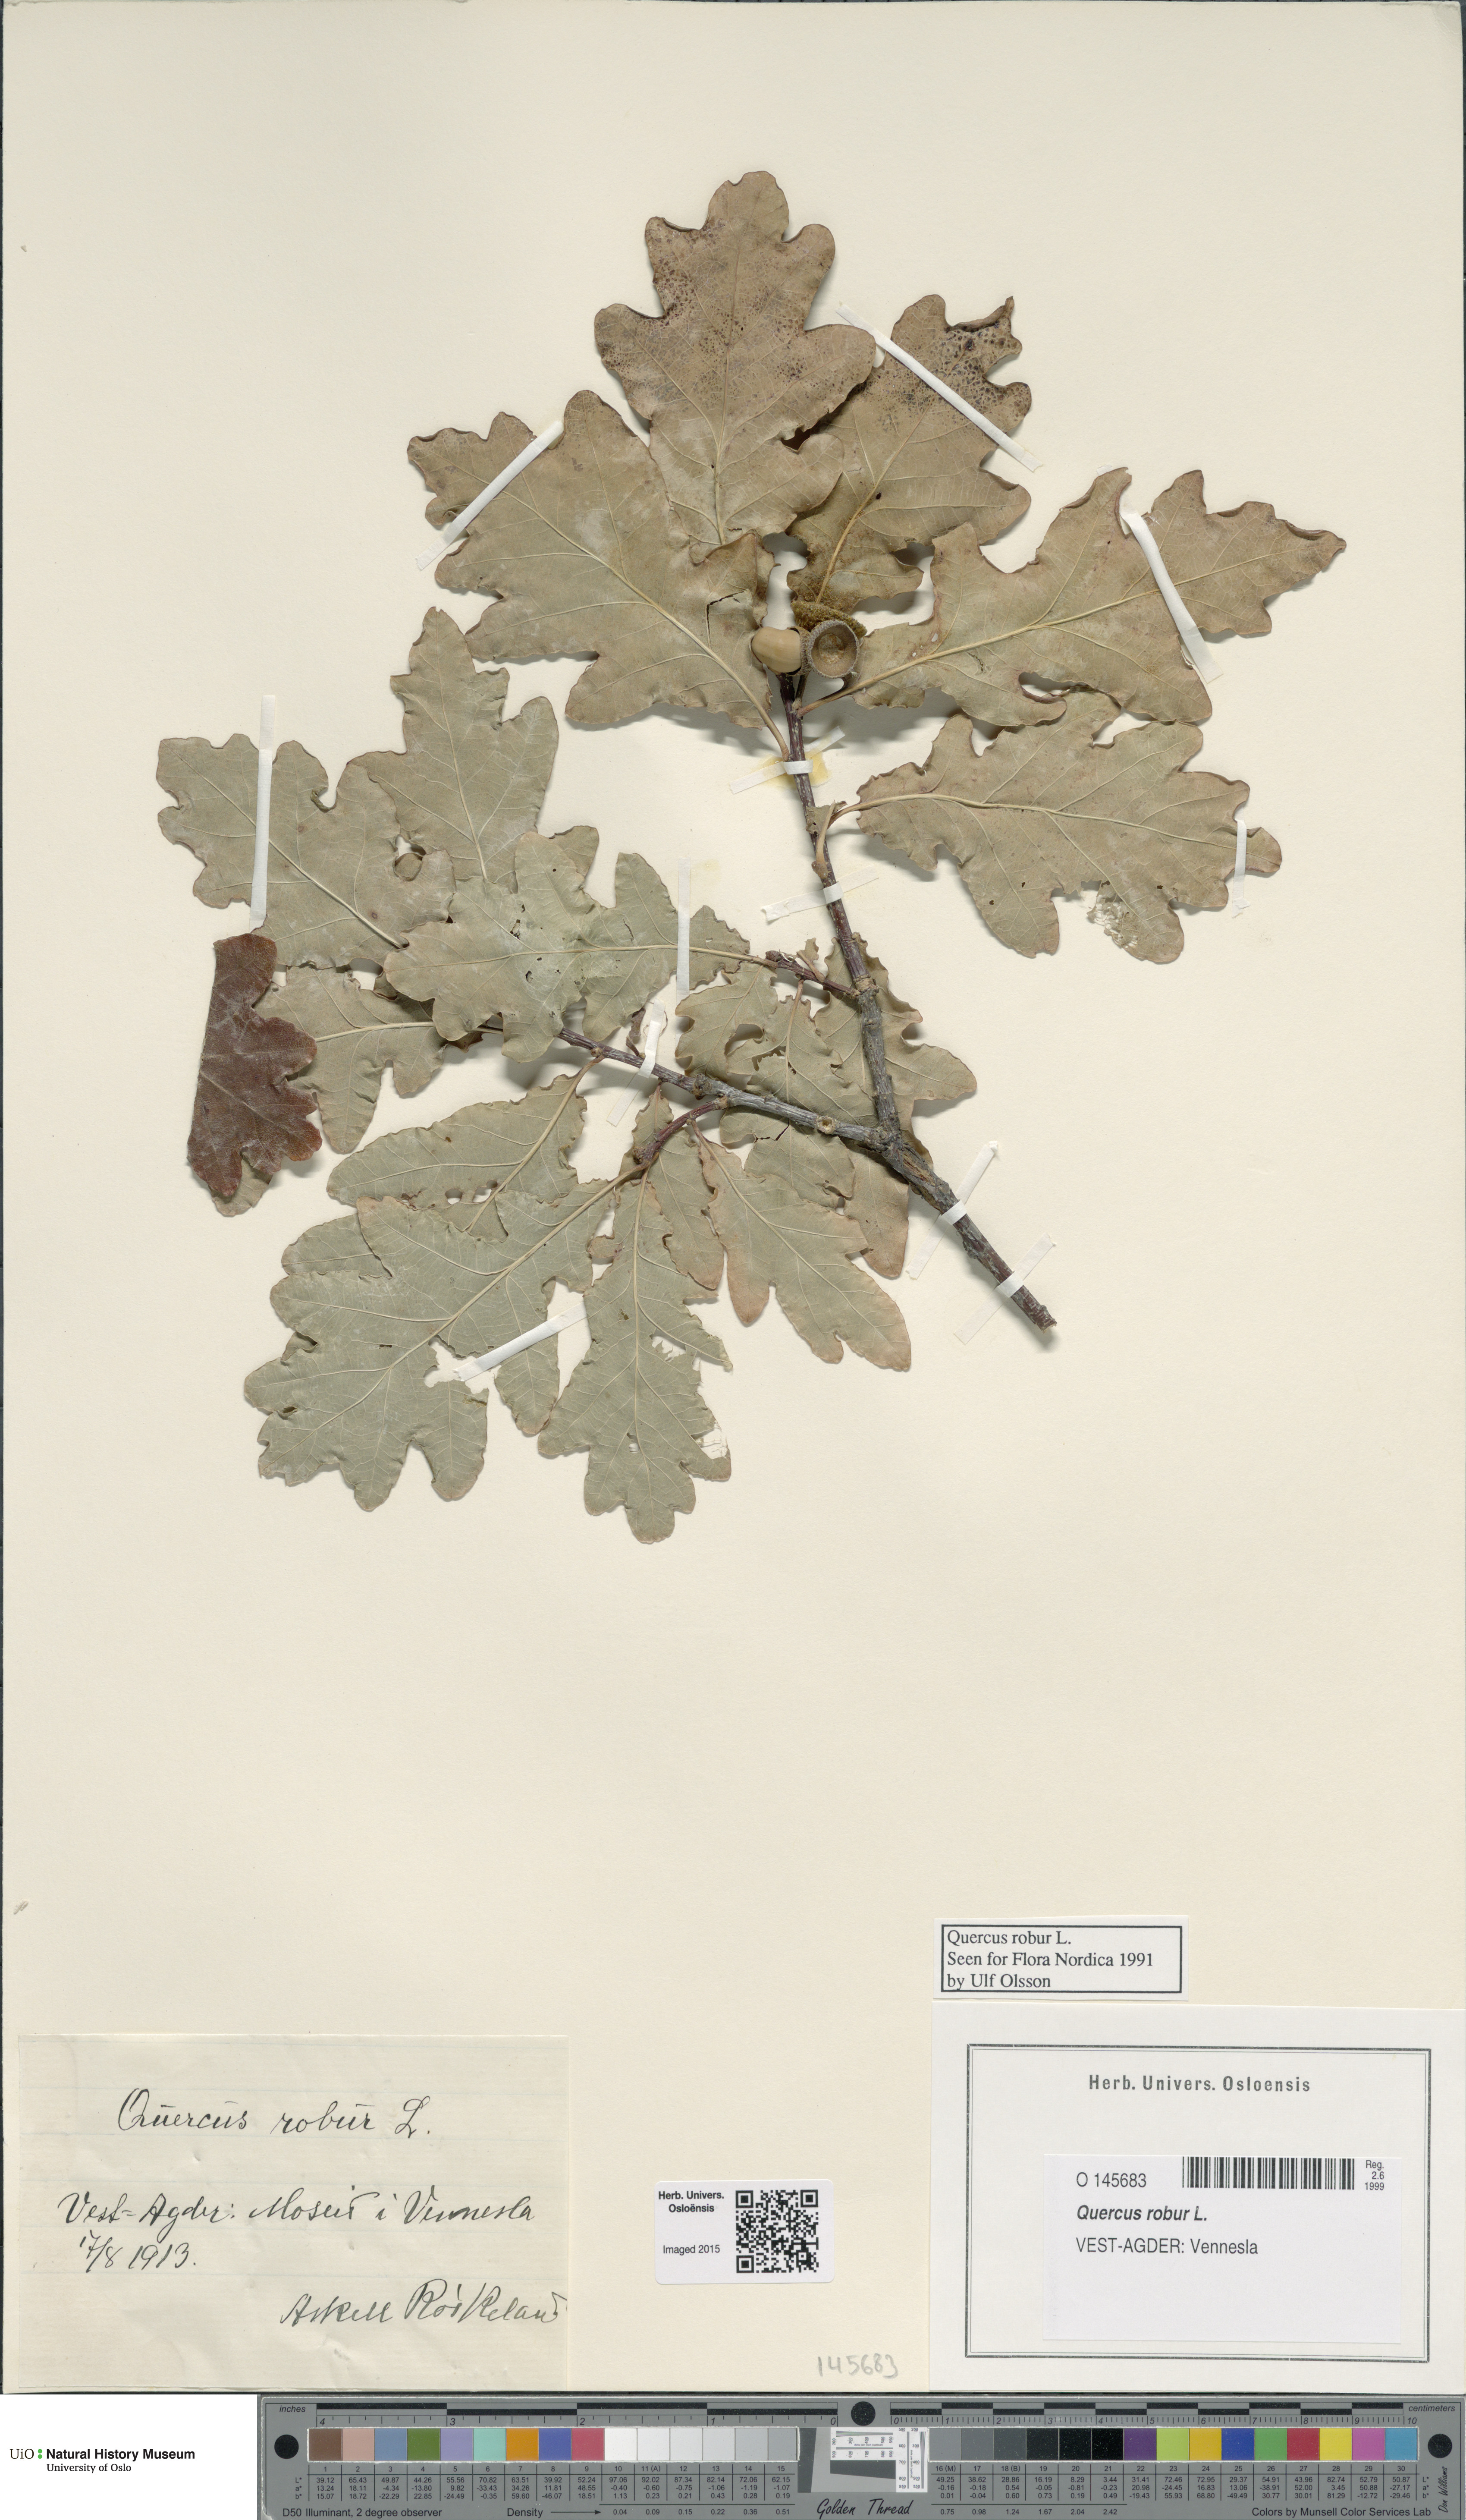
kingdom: Plantae
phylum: Tracheophyta
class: Magnoliopsida
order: Fagales
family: Fagaceae
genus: Quercus
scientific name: Quercus robur
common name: Pedunculate oak
